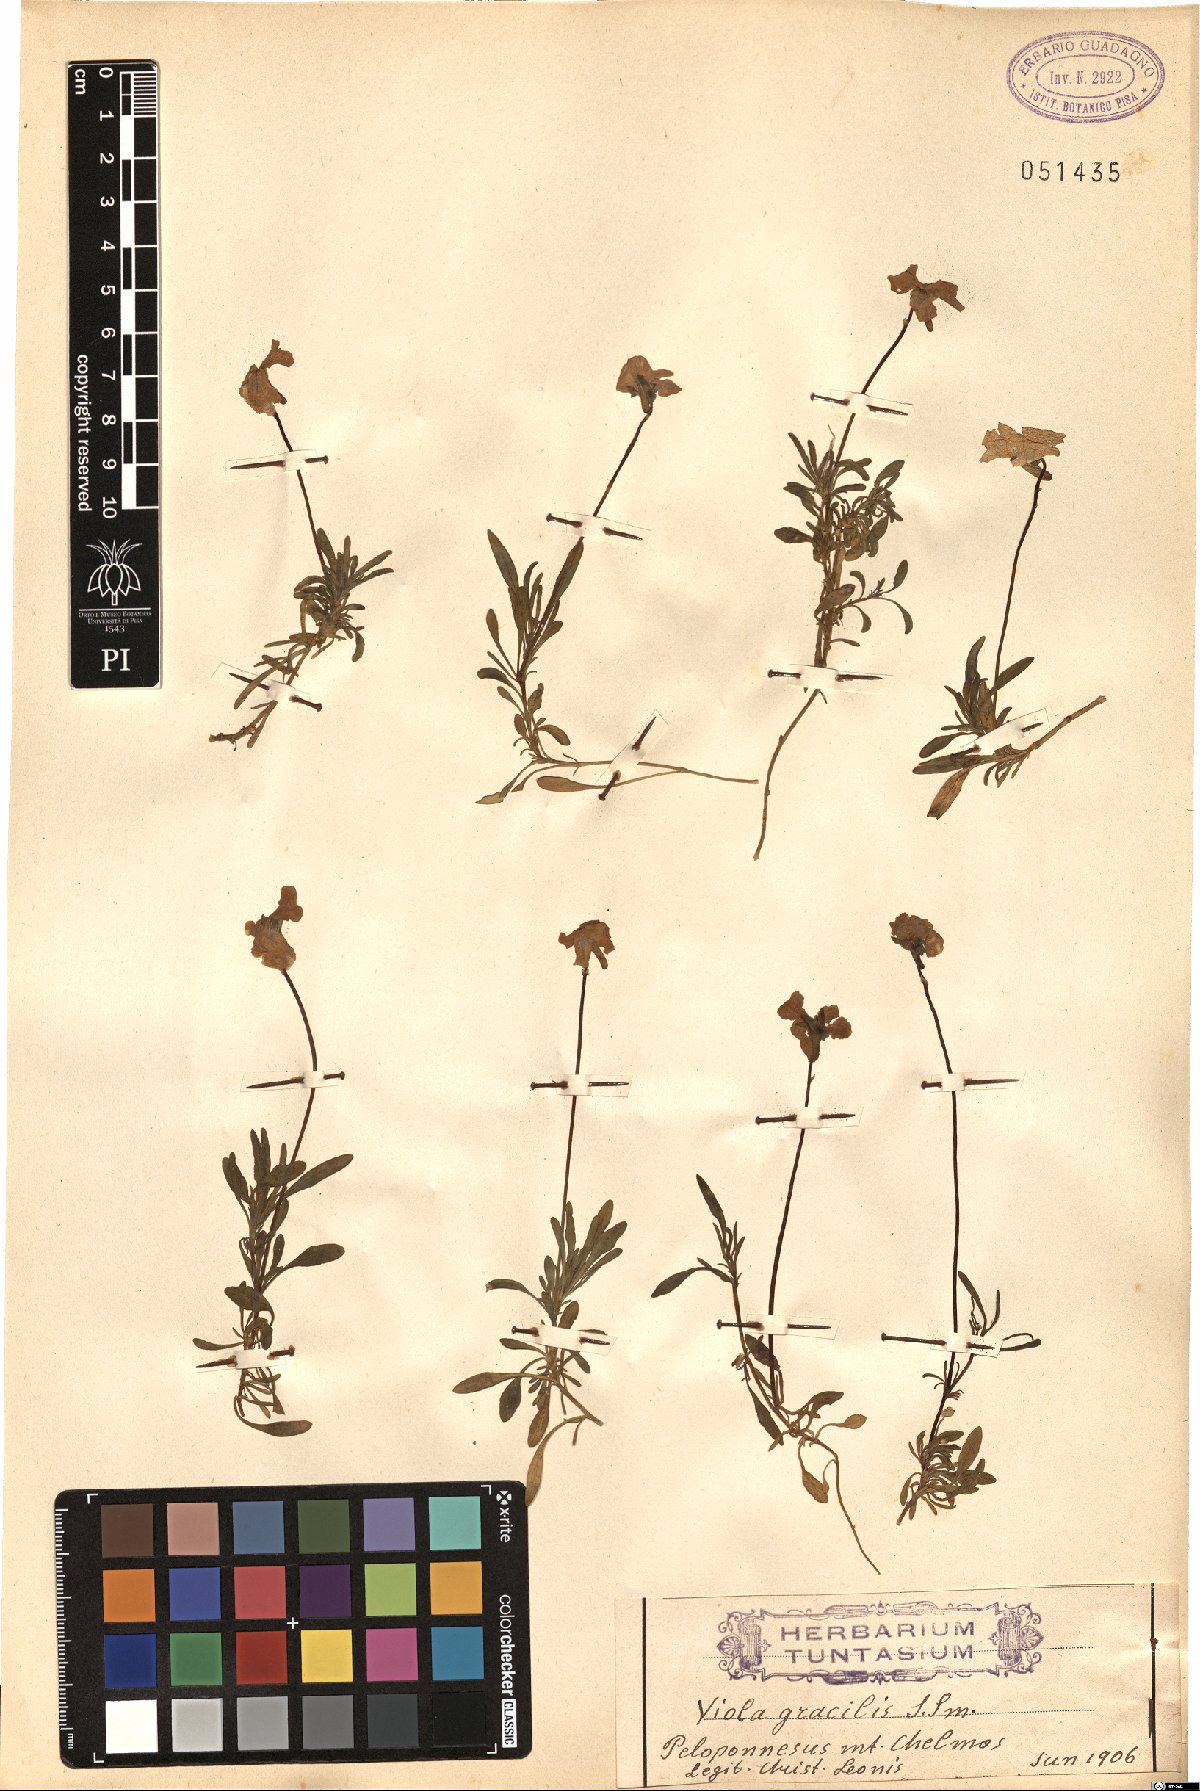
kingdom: Plantae
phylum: Tracheophyta
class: Magnoliopsida
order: Malpighiales
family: Violaceae
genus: Viola
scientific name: Viola gracilis
